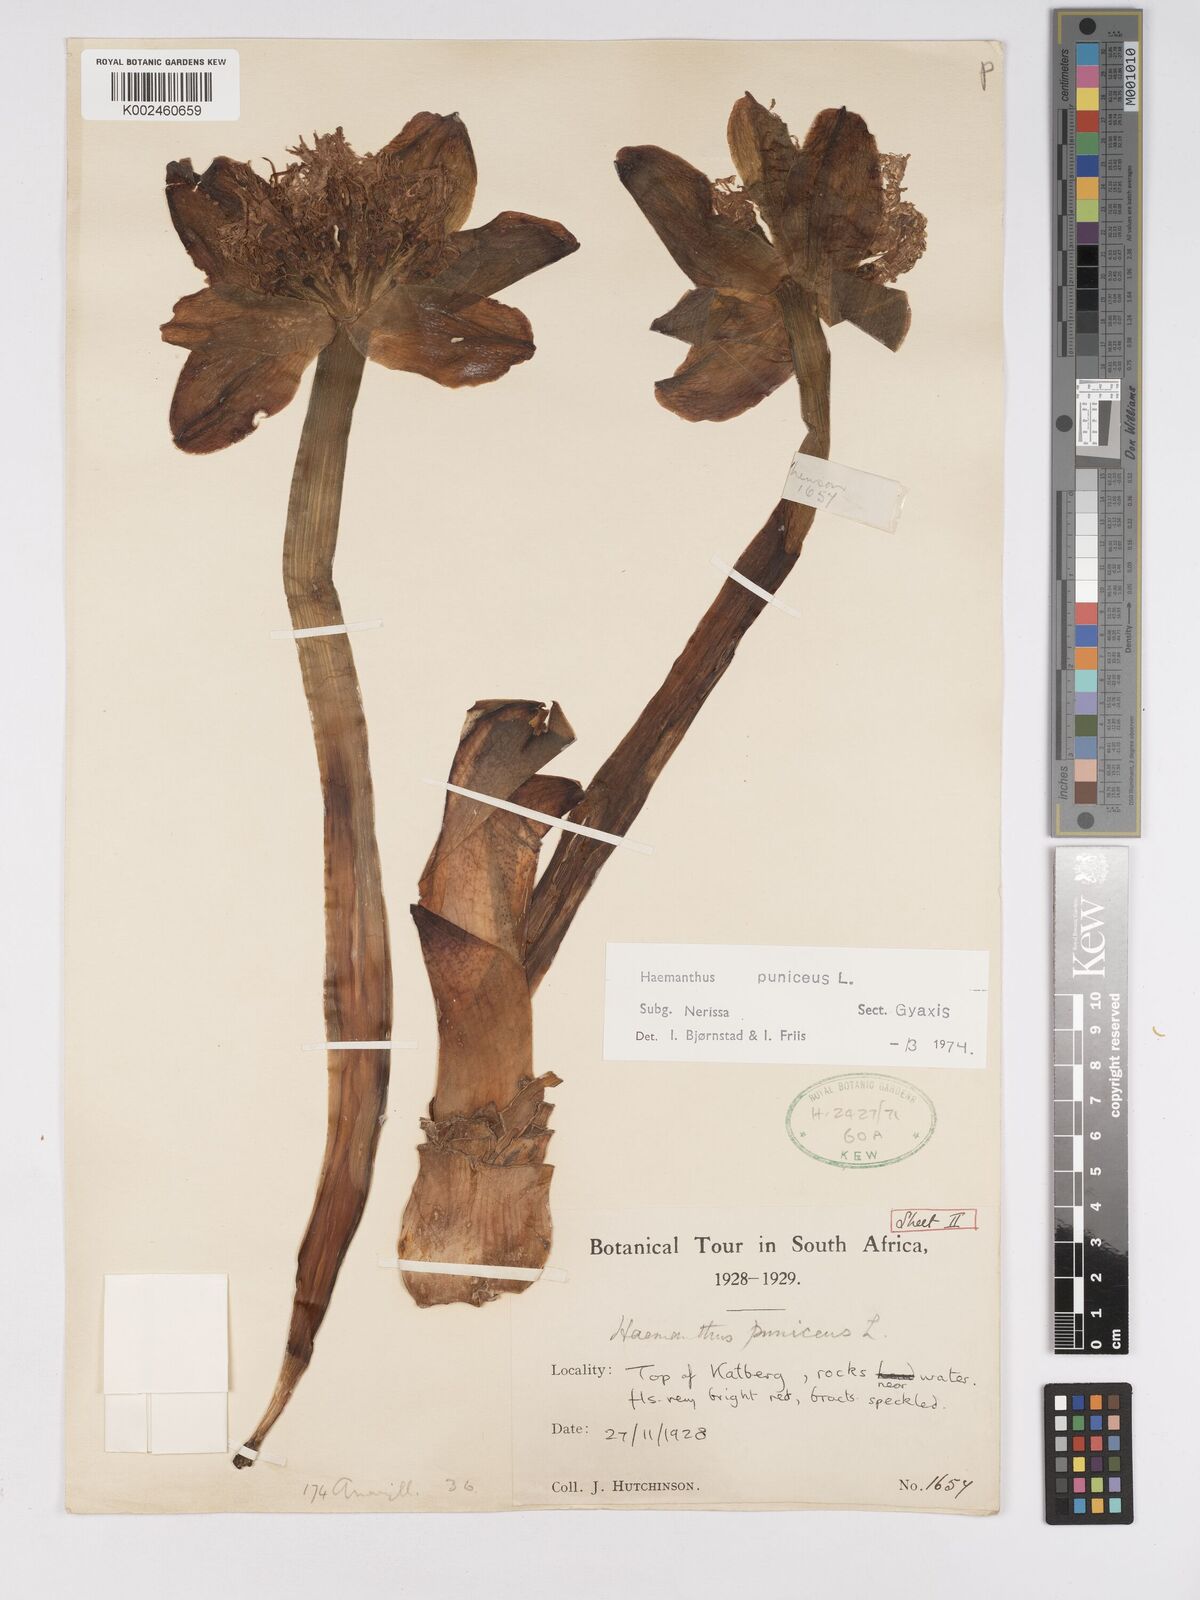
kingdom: Plantae
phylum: Tracheophyta
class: Liliopsida
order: Asparagales
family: Amaryllidaceae
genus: Scadoxus
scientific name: Scadoxus puniceus
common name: Royal-paintbrush
